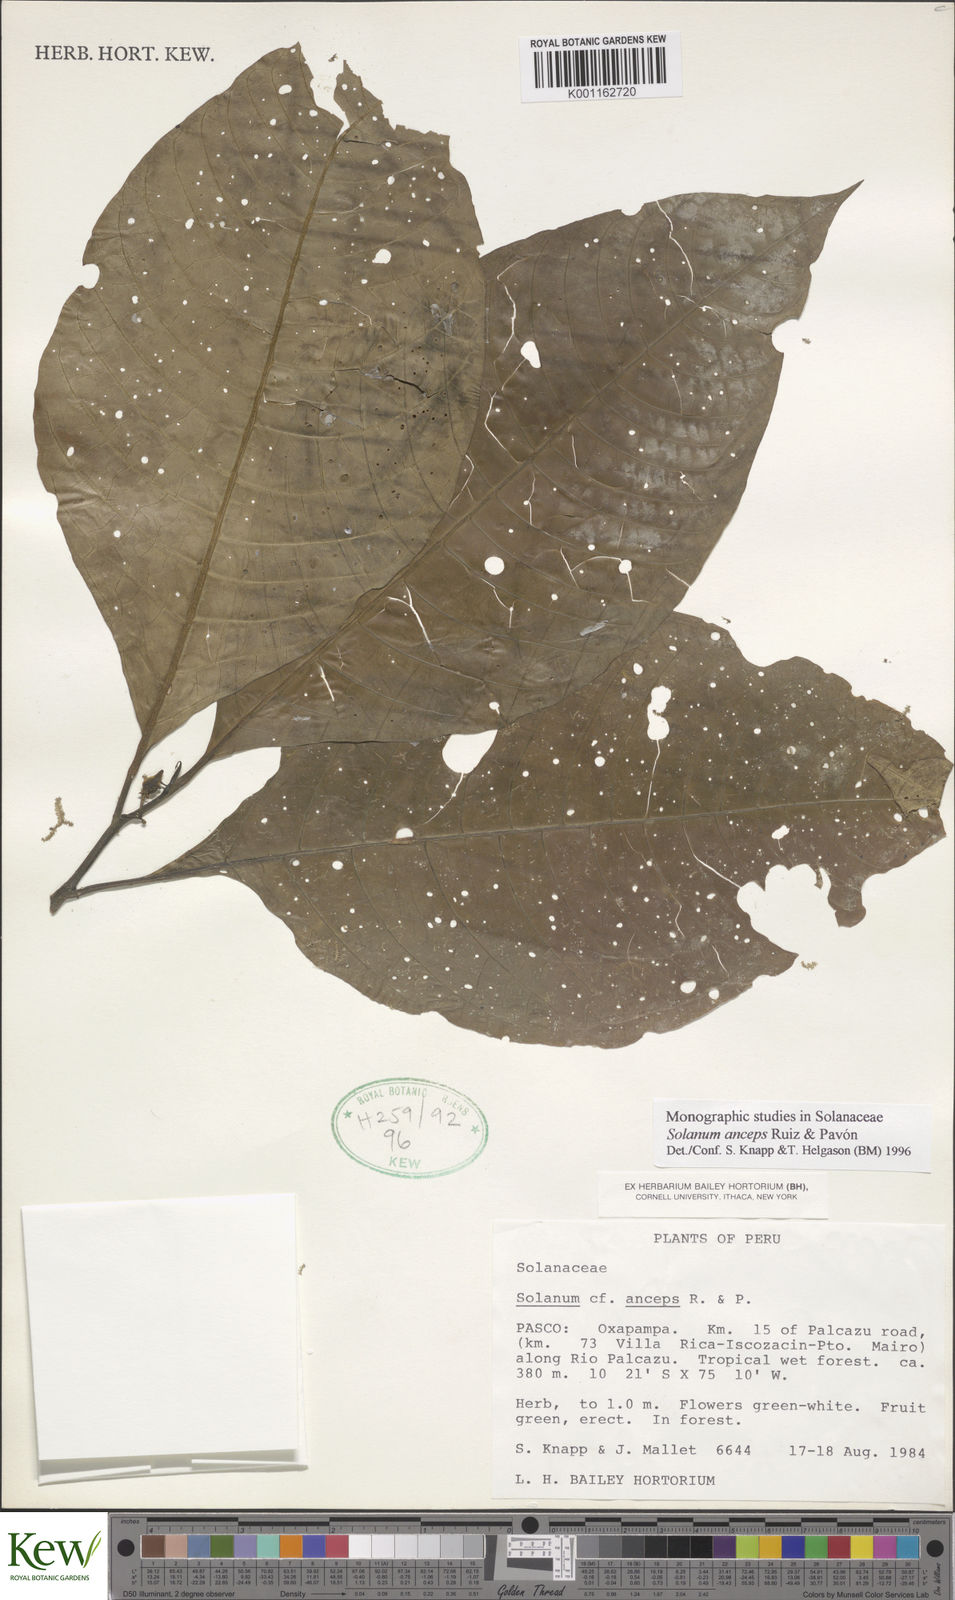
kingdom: Plantae
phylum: Tracheophyta
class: Magnoliopsida
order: Solanales
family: Solanaceae
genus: Solanum
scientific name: Solanum anceps
